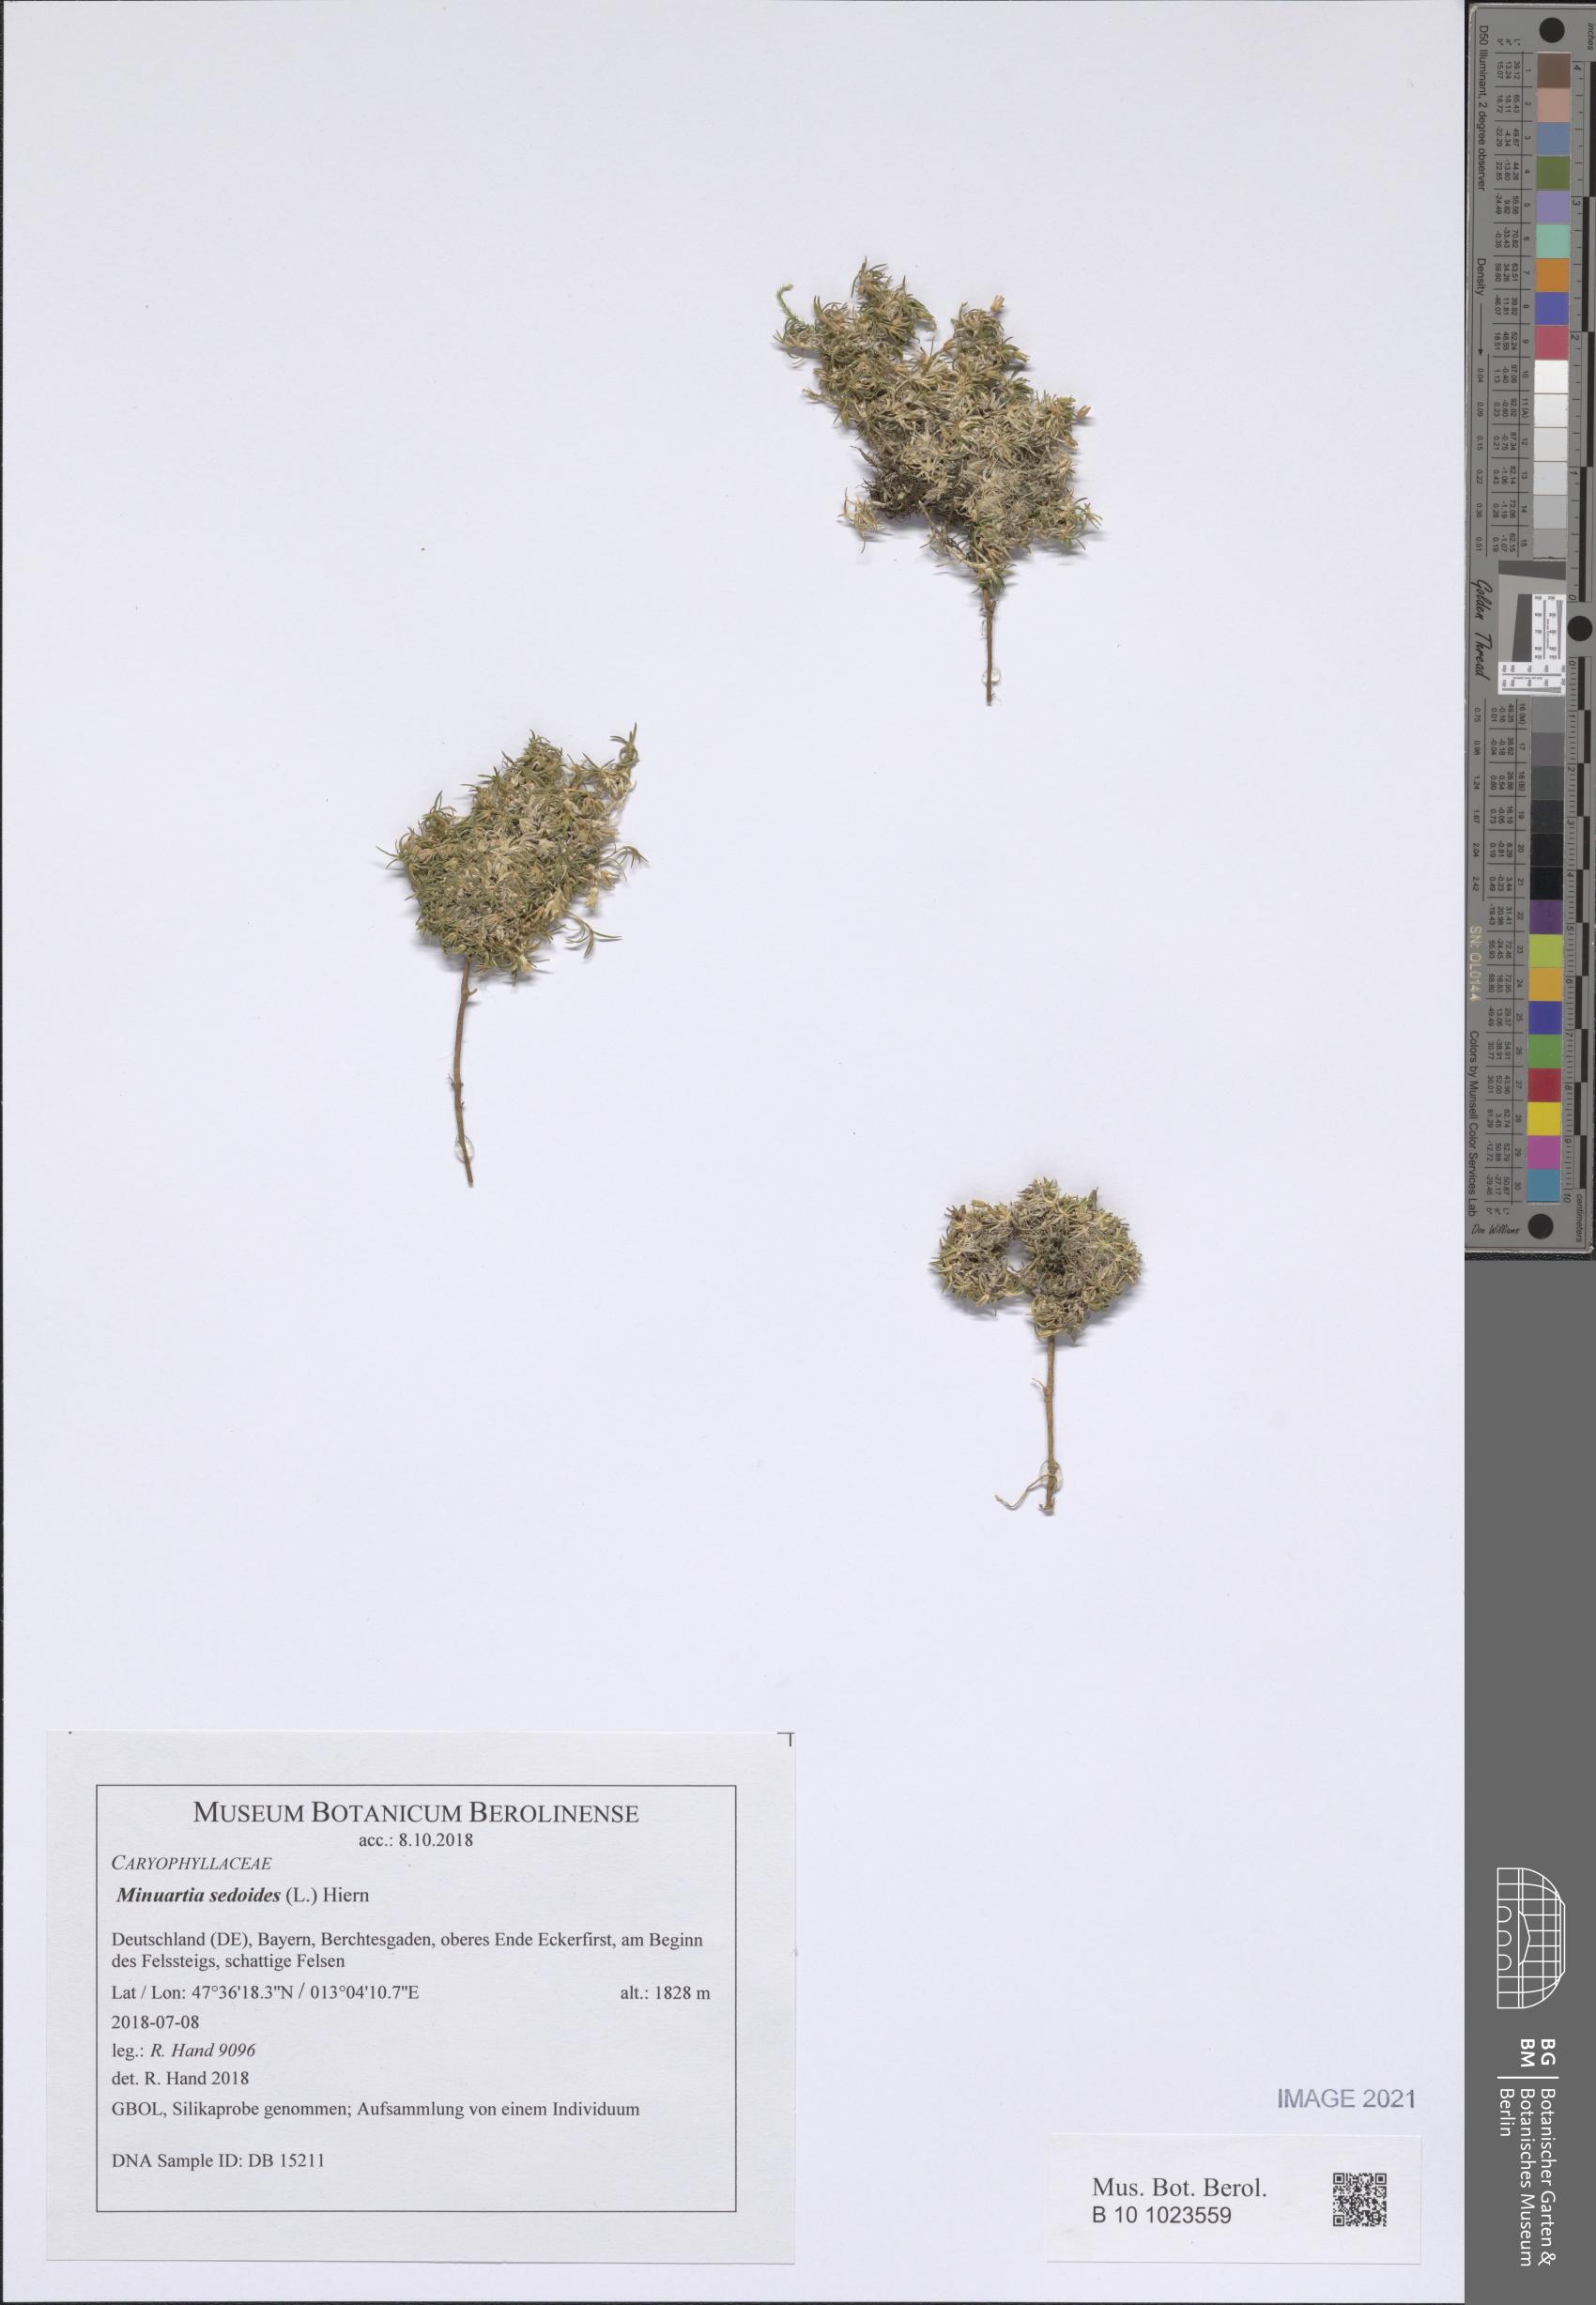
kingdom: Plantae
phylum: Tracheophyta
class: Magnoliopsida
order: Caryophyllales
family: Caryophyllaceae
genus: Cherleria
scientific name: Cherleria sedoides
